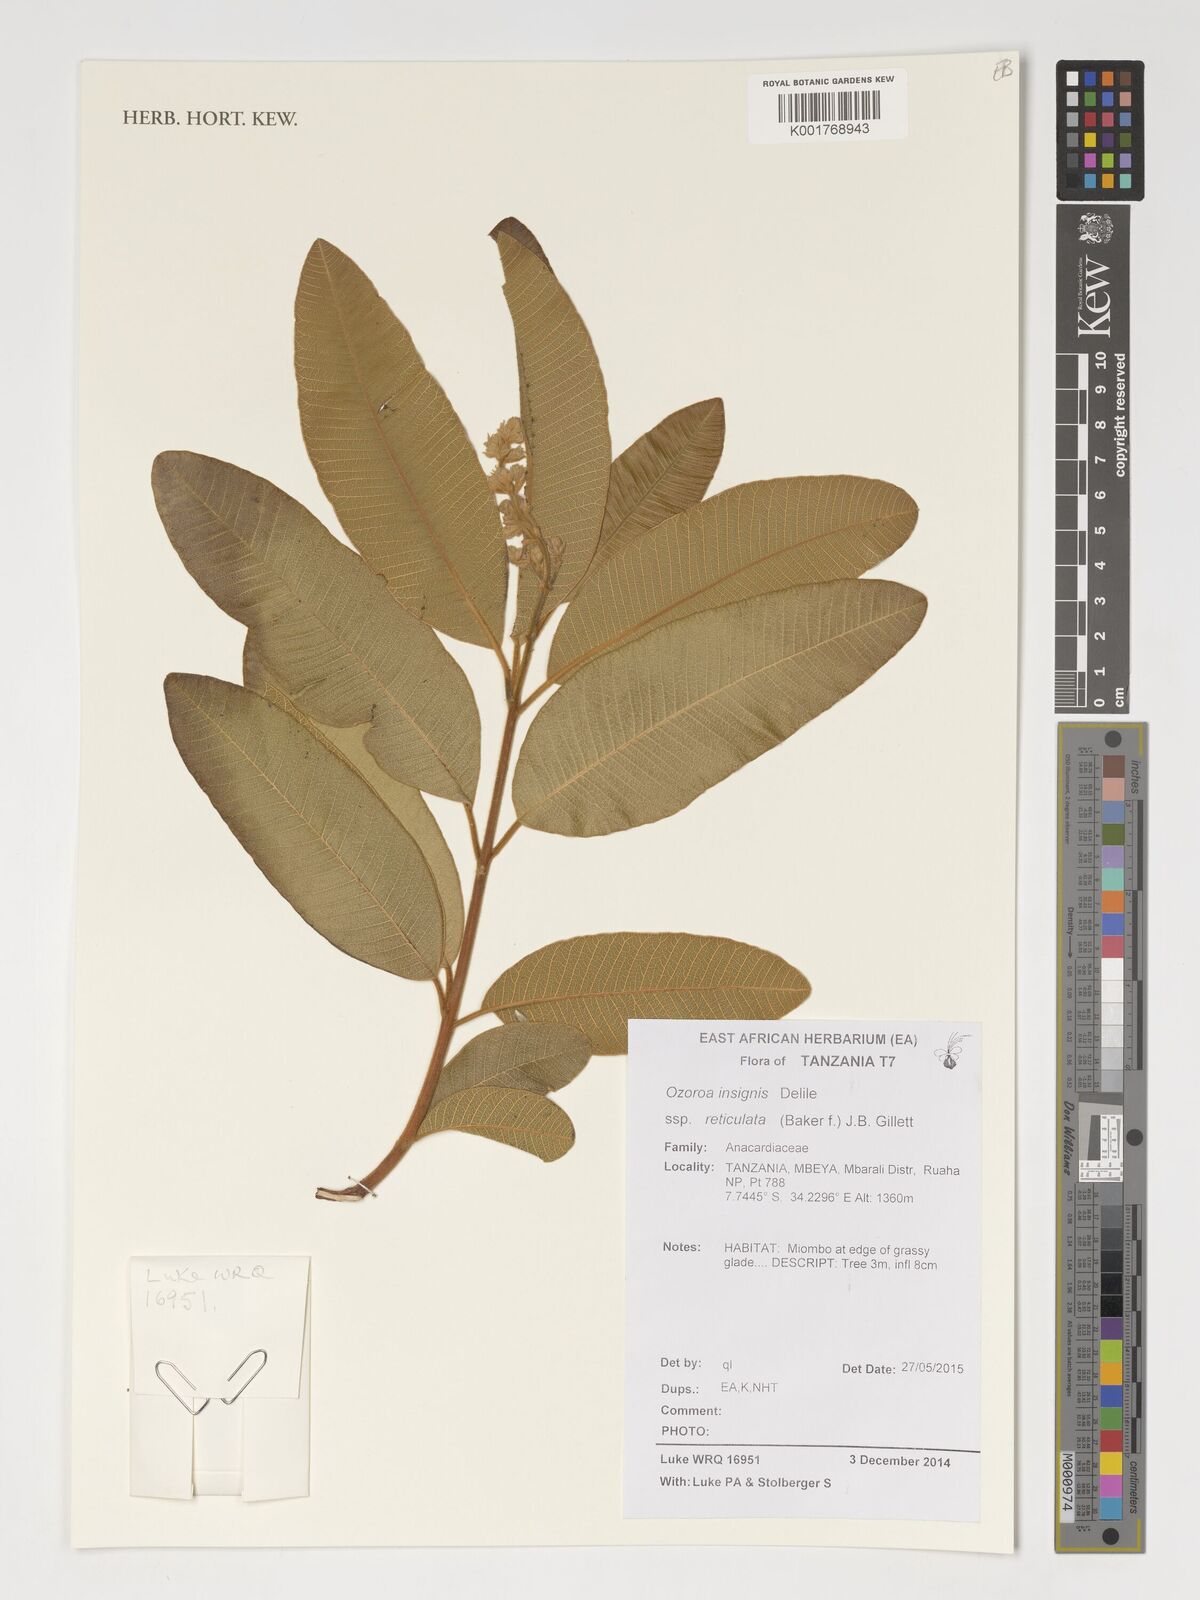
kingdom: Plantae
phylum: Tracheophyta
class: Magnoliopsida
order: Sapindales
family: Anacardiaceae
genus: Ozoroa
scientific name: Ozoroa insignis
